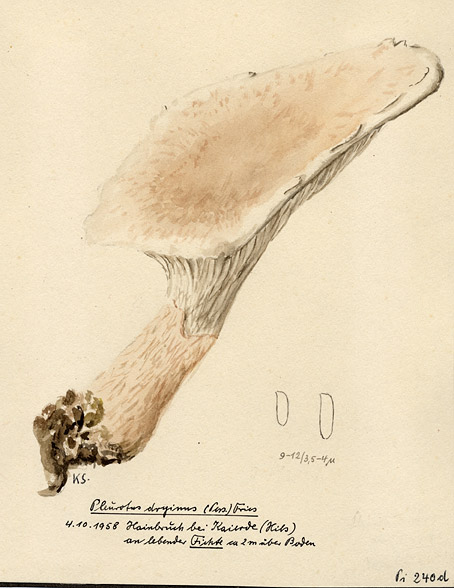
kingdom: Fungi
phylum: Basidiomycota
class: Agaricomycetes
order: Agaricales
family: Pleurotaceae
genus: Pleurotus
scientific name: Pleurotus dryinus
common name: Veiled oyster
